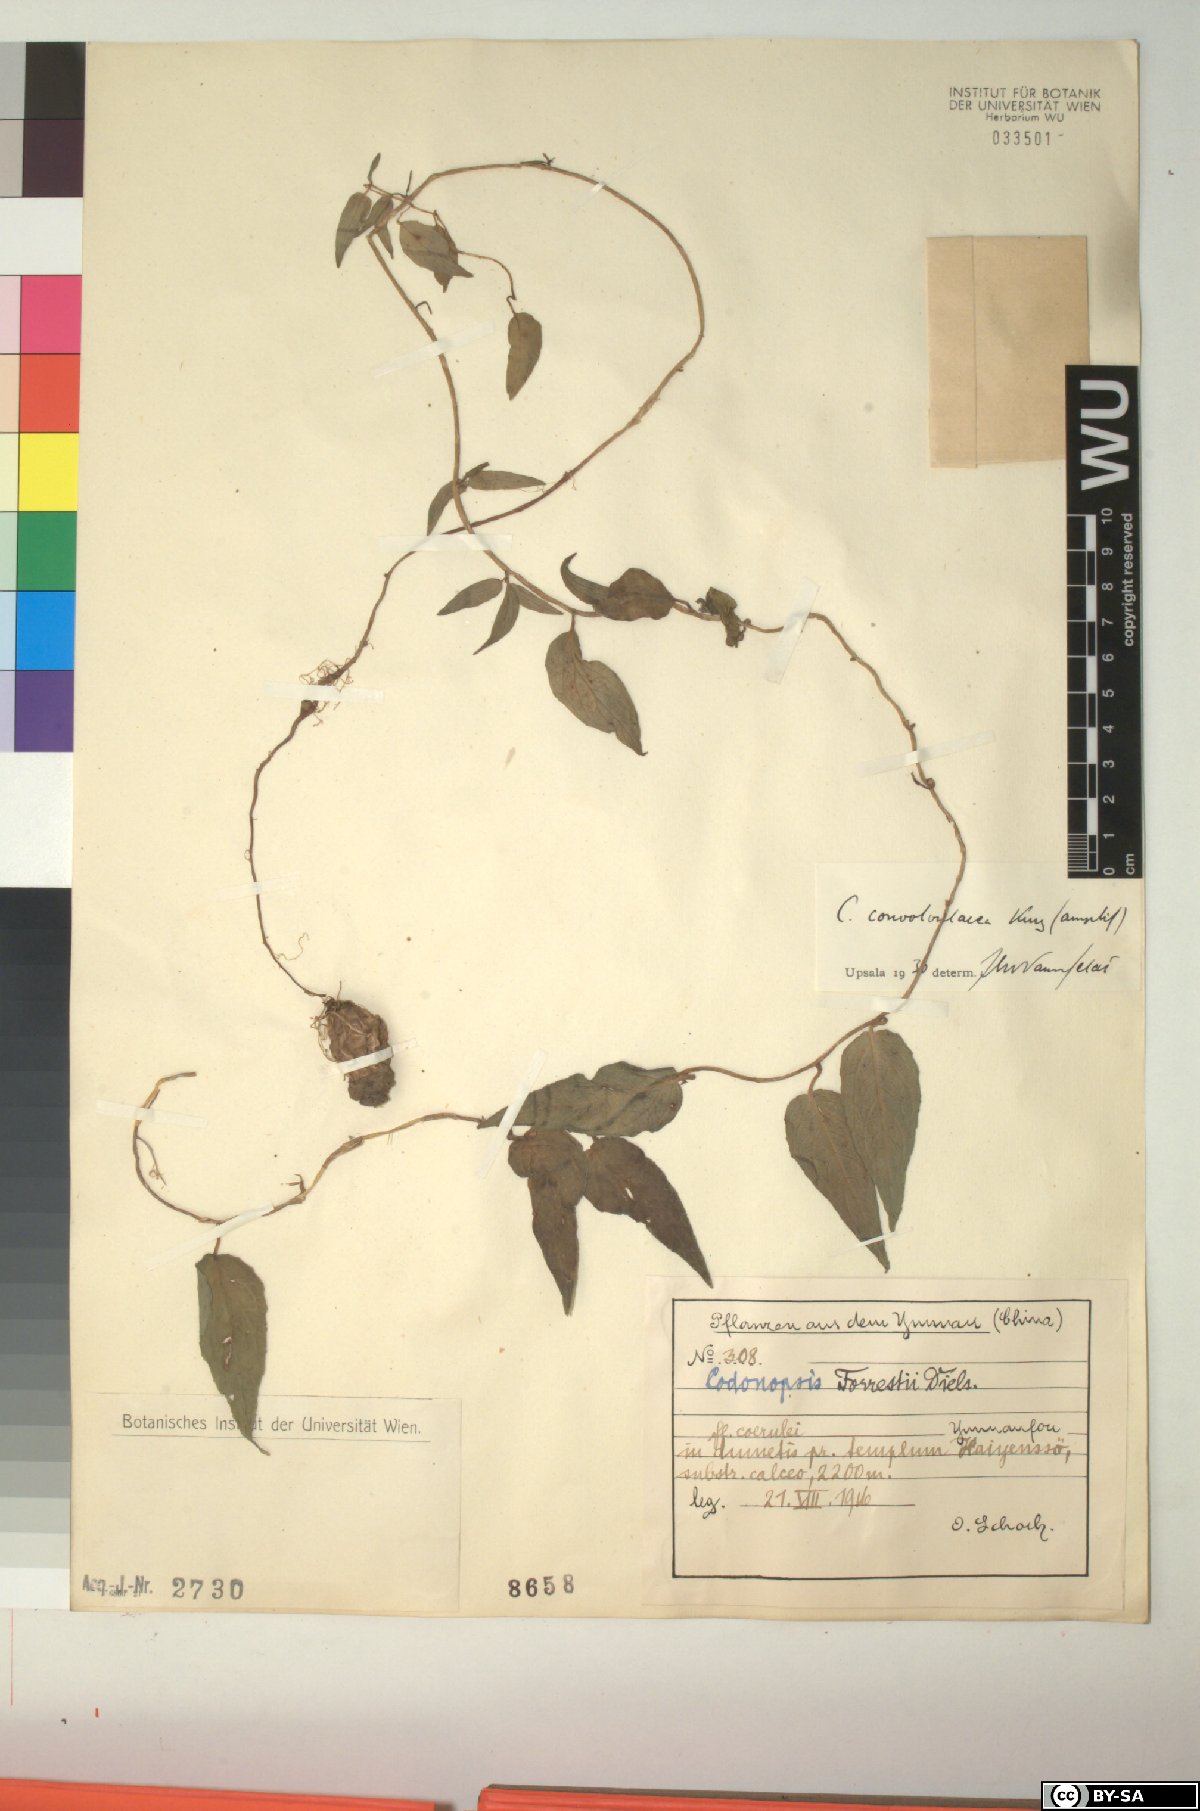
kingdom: Plantae
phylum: Tracheophyta
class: Magnoliopsida
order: Asterales
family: Campanulaceae
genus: Pseudocodon
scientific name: Pseudocodon convolvulaceus
